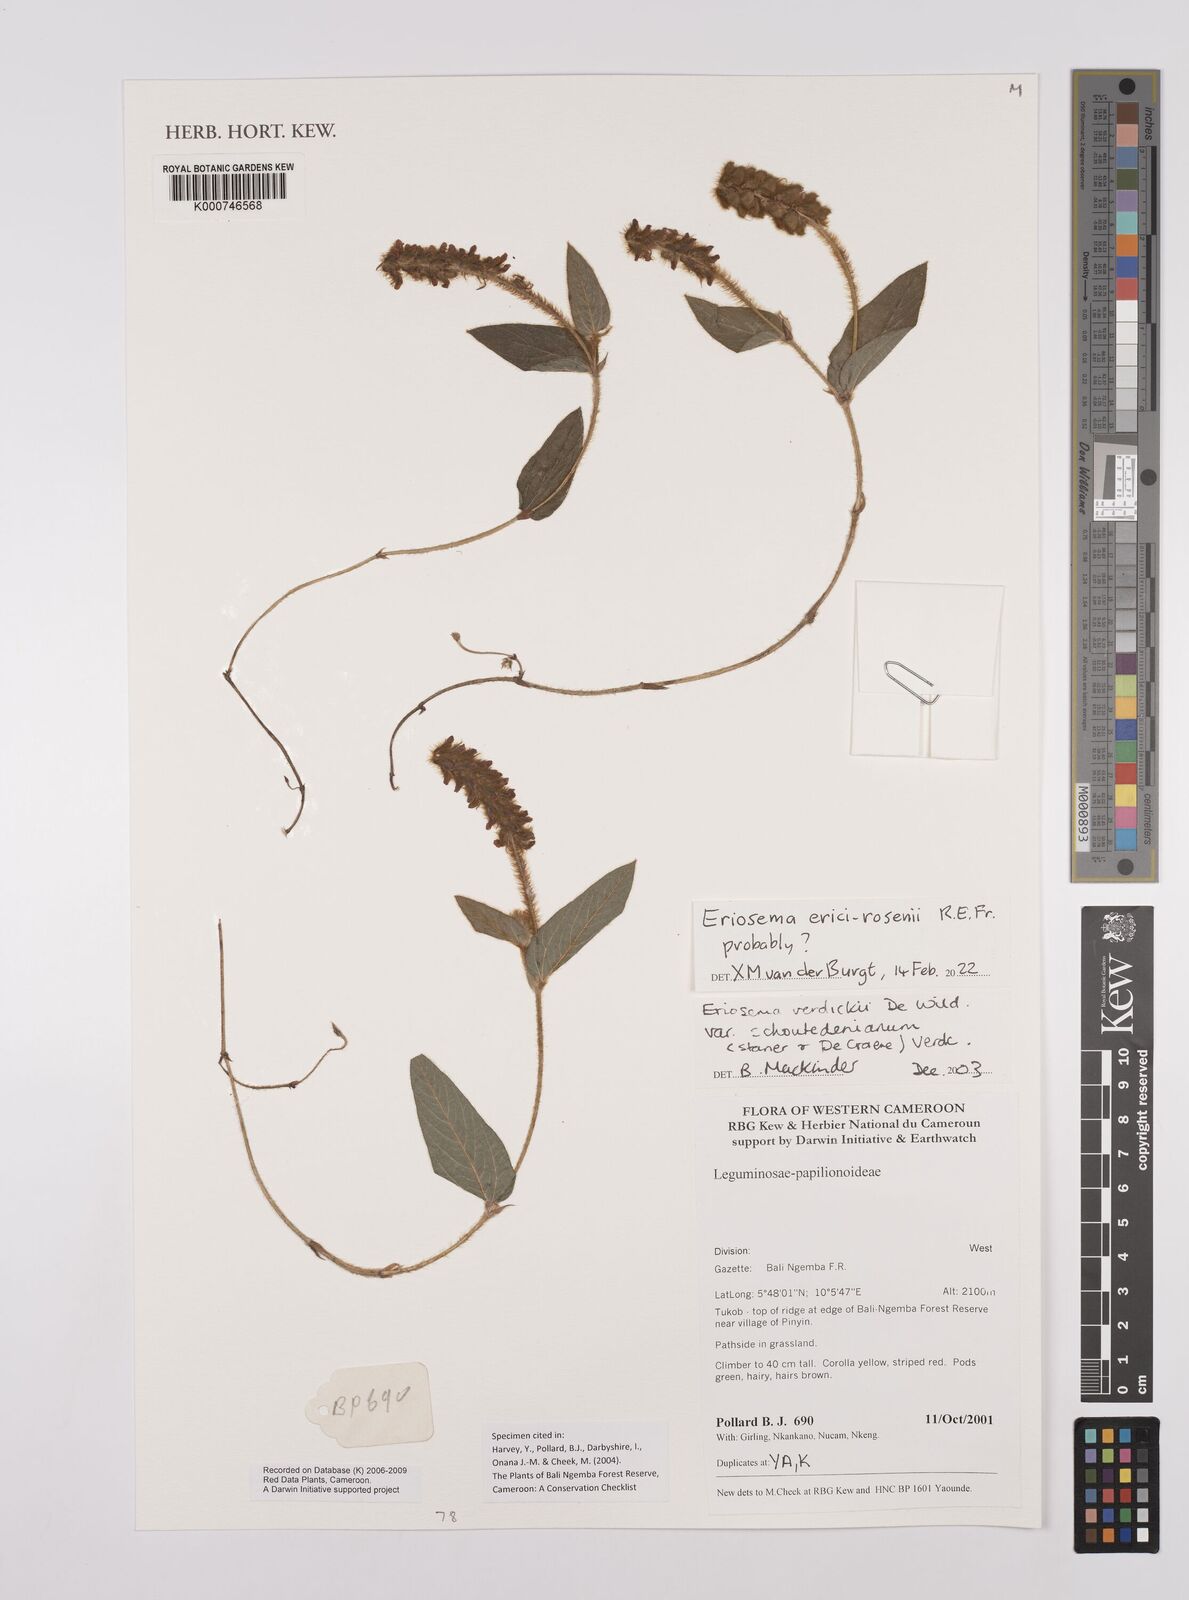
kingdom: Plantae
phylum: Tracheophyta
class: Magnoliopsida
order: Fabales
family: Fabaceae
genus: Eriosema
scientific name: Eriosema verdickii
